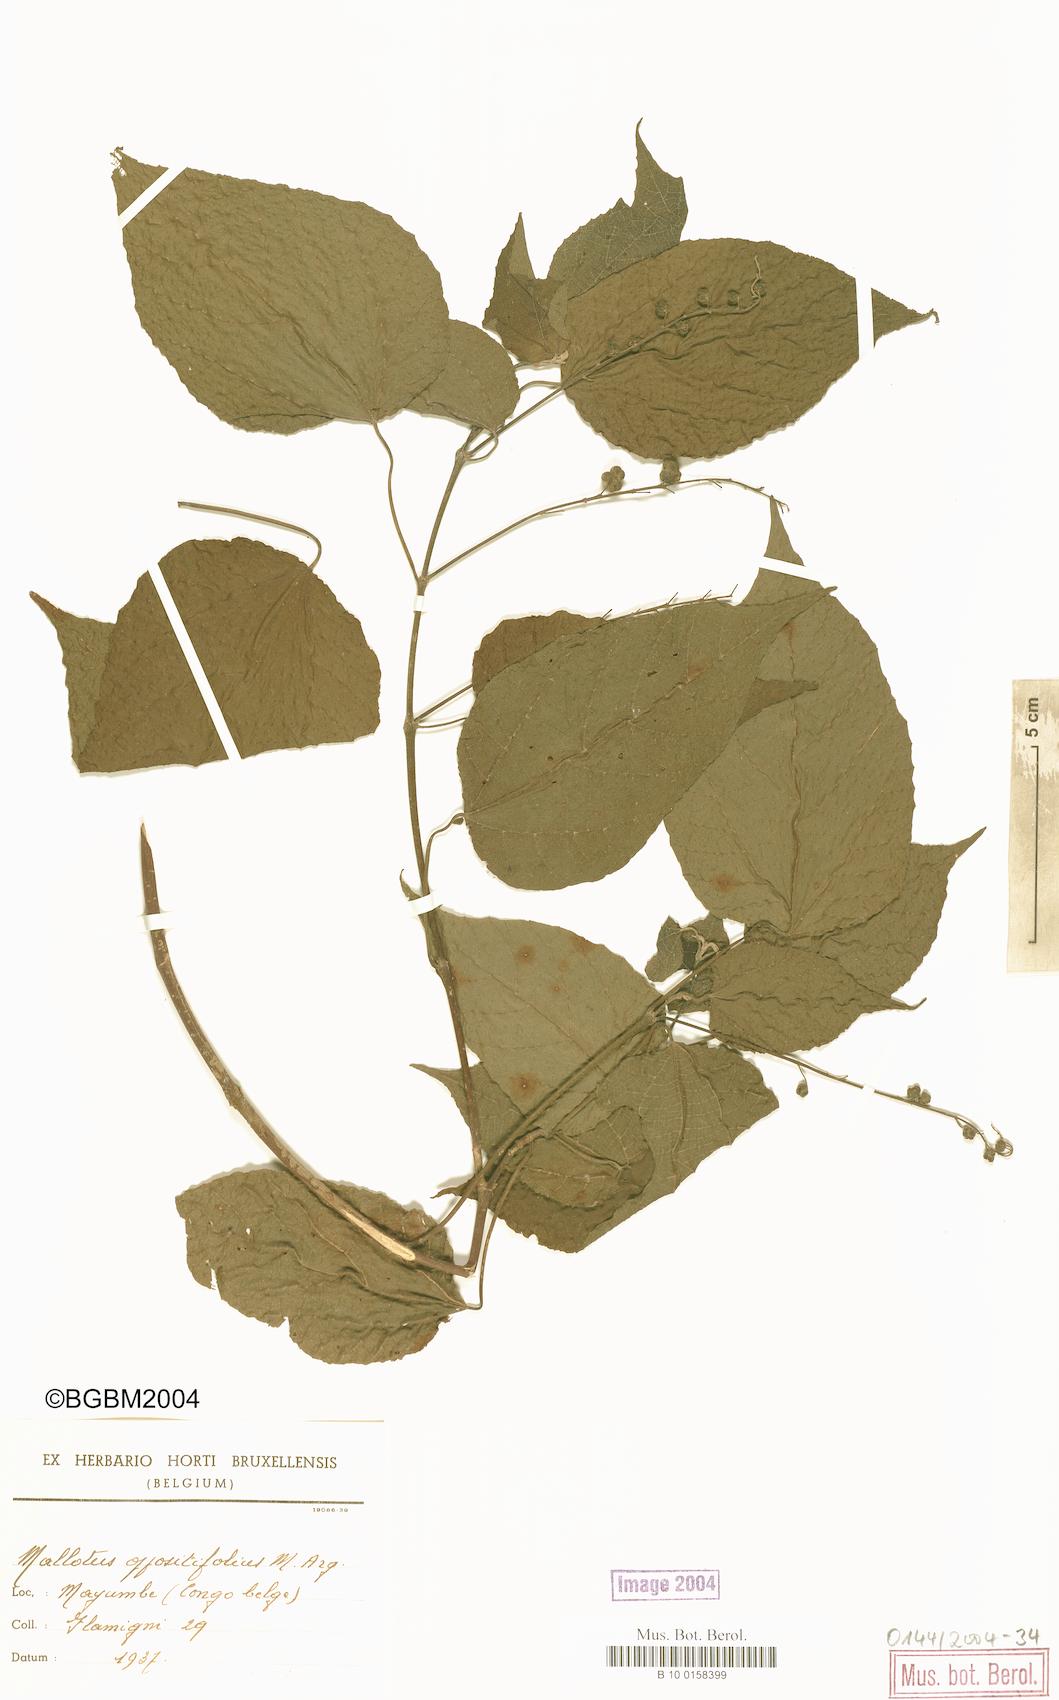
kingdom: Plantae
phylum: Tracheophyta
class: Magnoliopsida
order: Malpighiales
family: Euphorbiaceae
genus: Mallotus
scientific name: Mallotus oppositifolius
